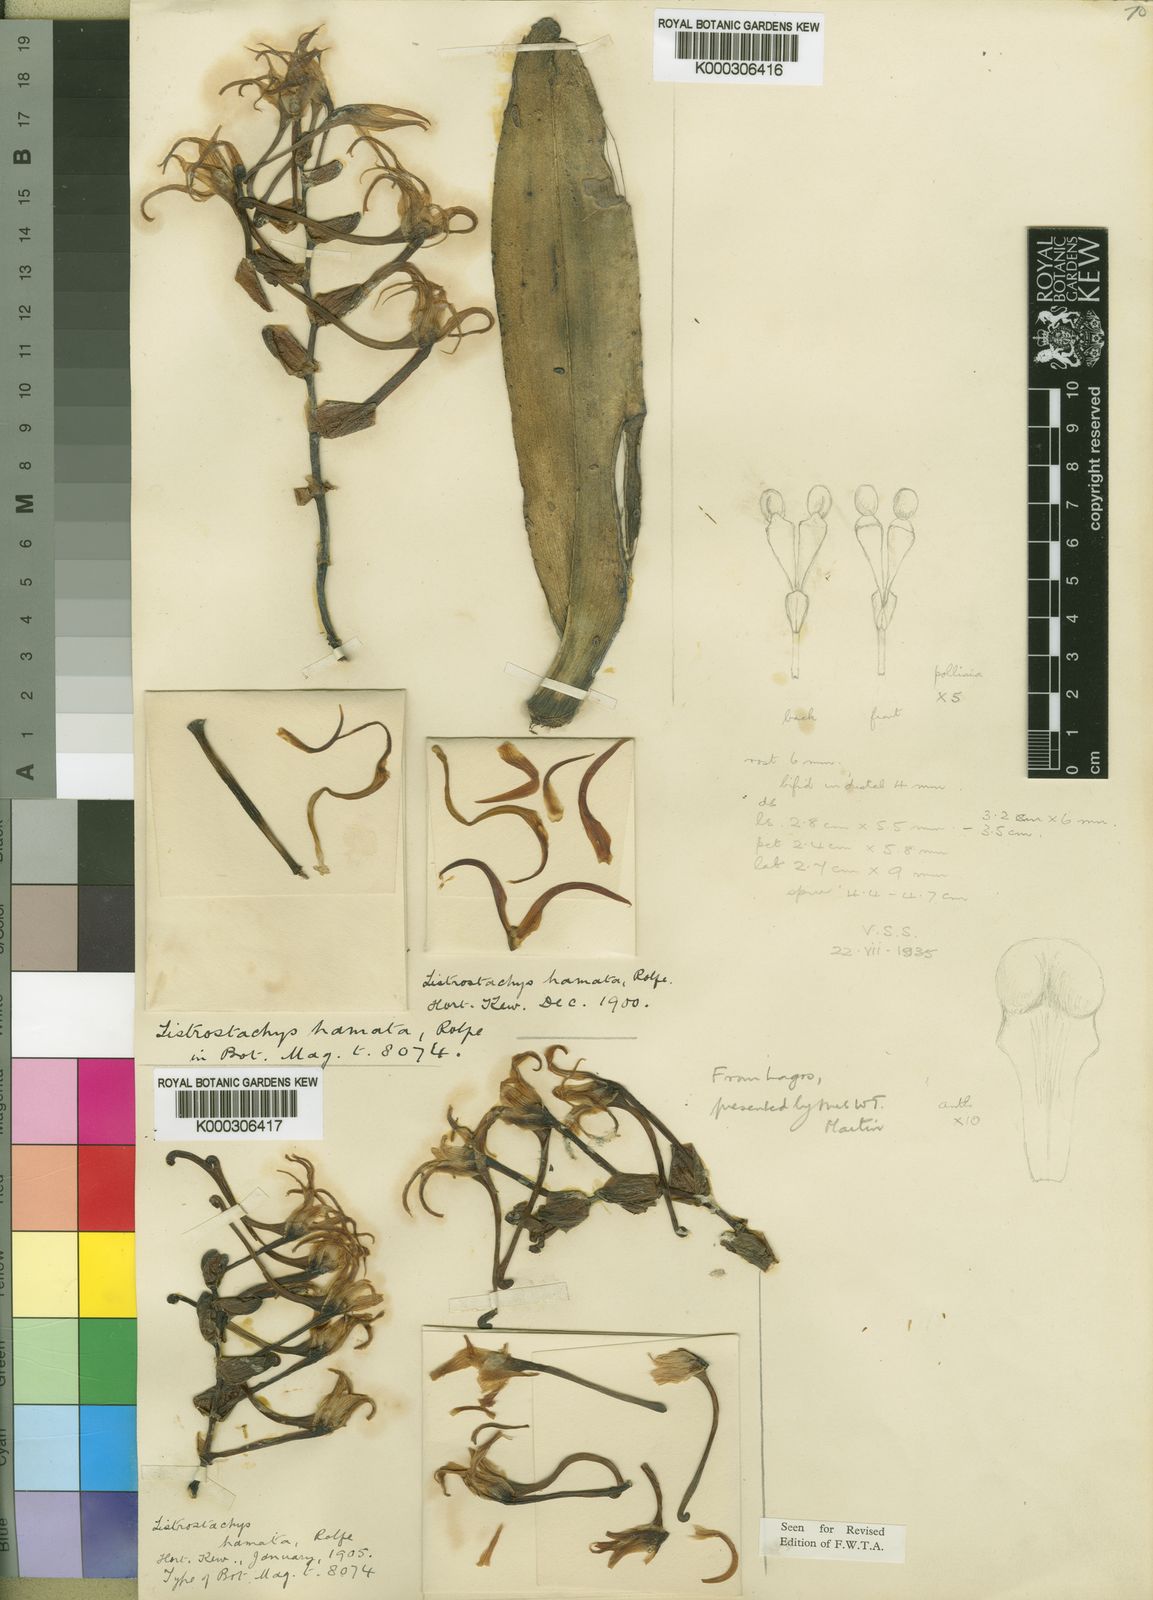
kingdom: Plantae
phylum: Tracheophyta
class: Liliopsida
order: Asparagales
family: Orchidaceae
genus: Cyrtorchis
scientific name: Cyrtorchis hamata
